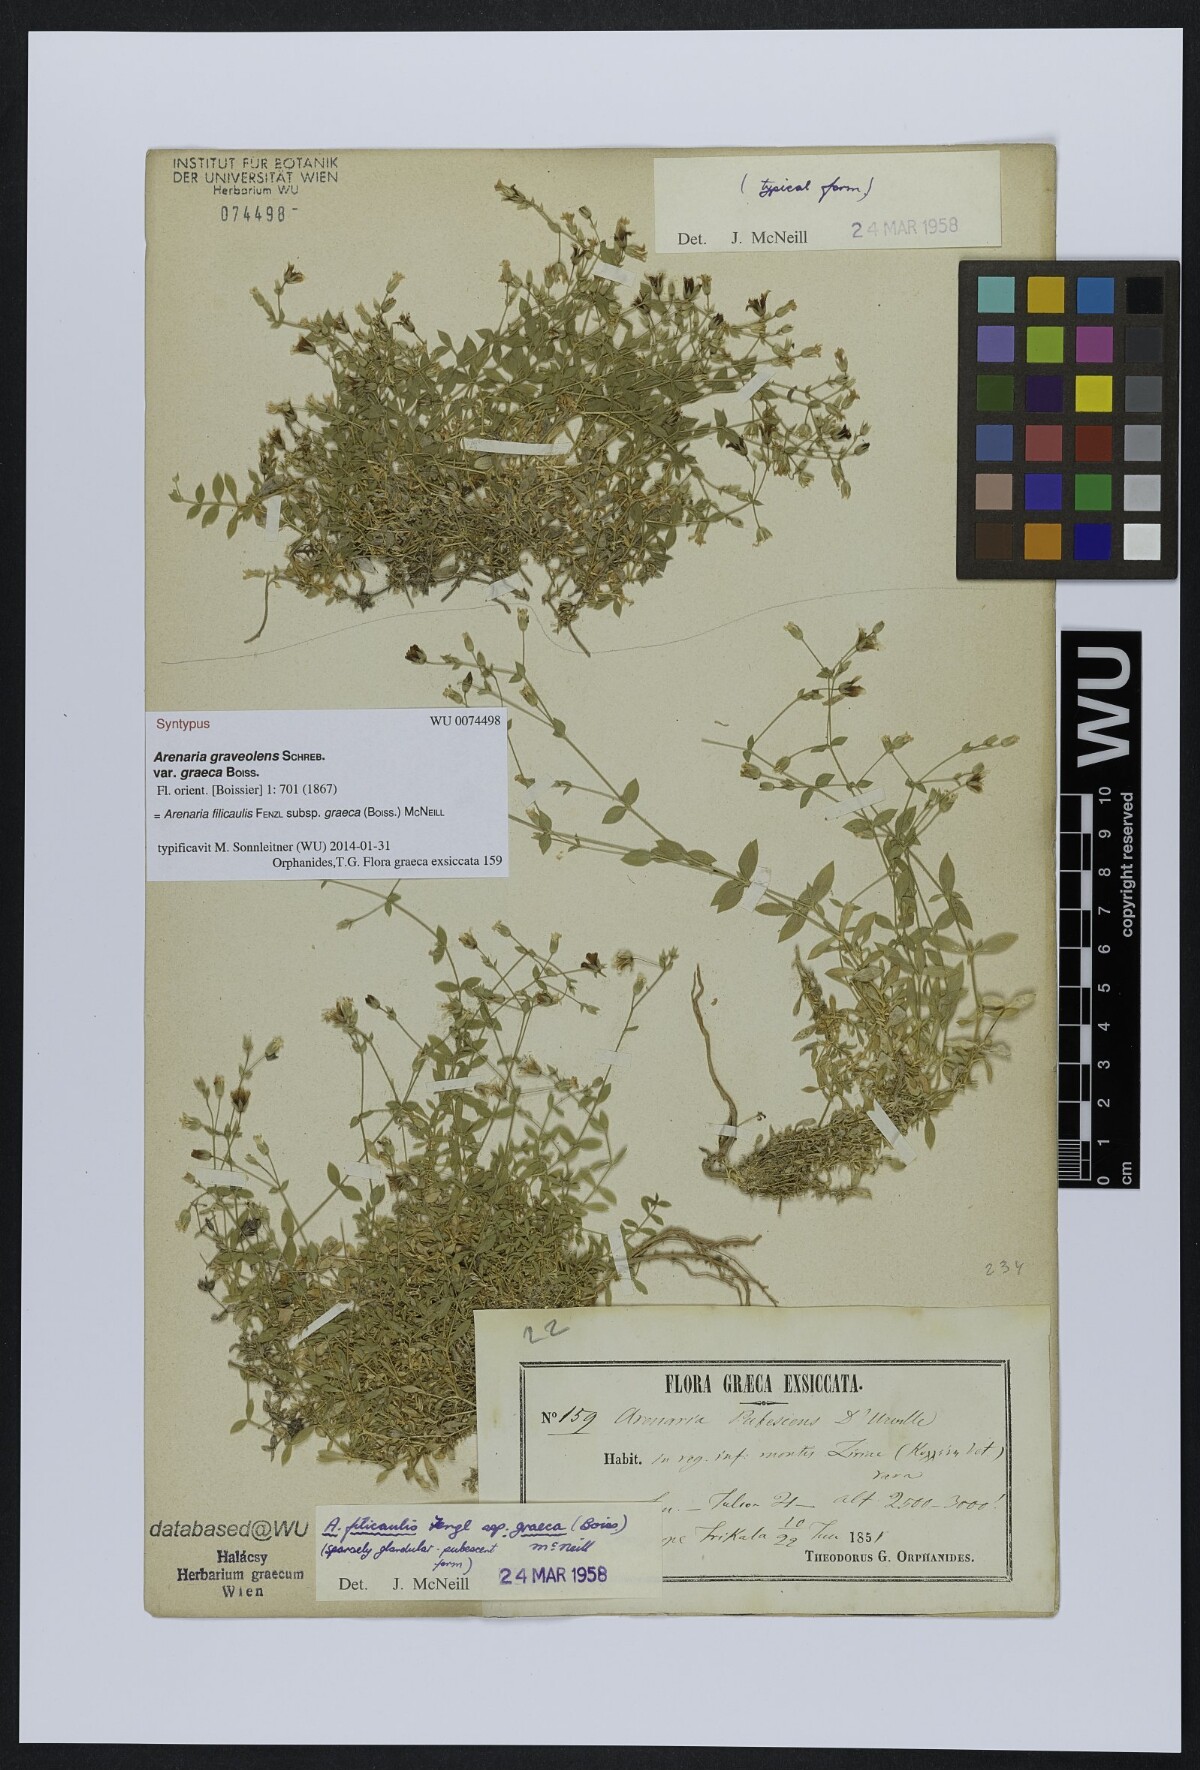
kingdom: Plantae
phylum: Tracheophyta
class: Magnoliopsida
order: Caryophyllales
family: Caryophyllaceae
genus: Arenaria
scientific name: Arenaria filicaulis
